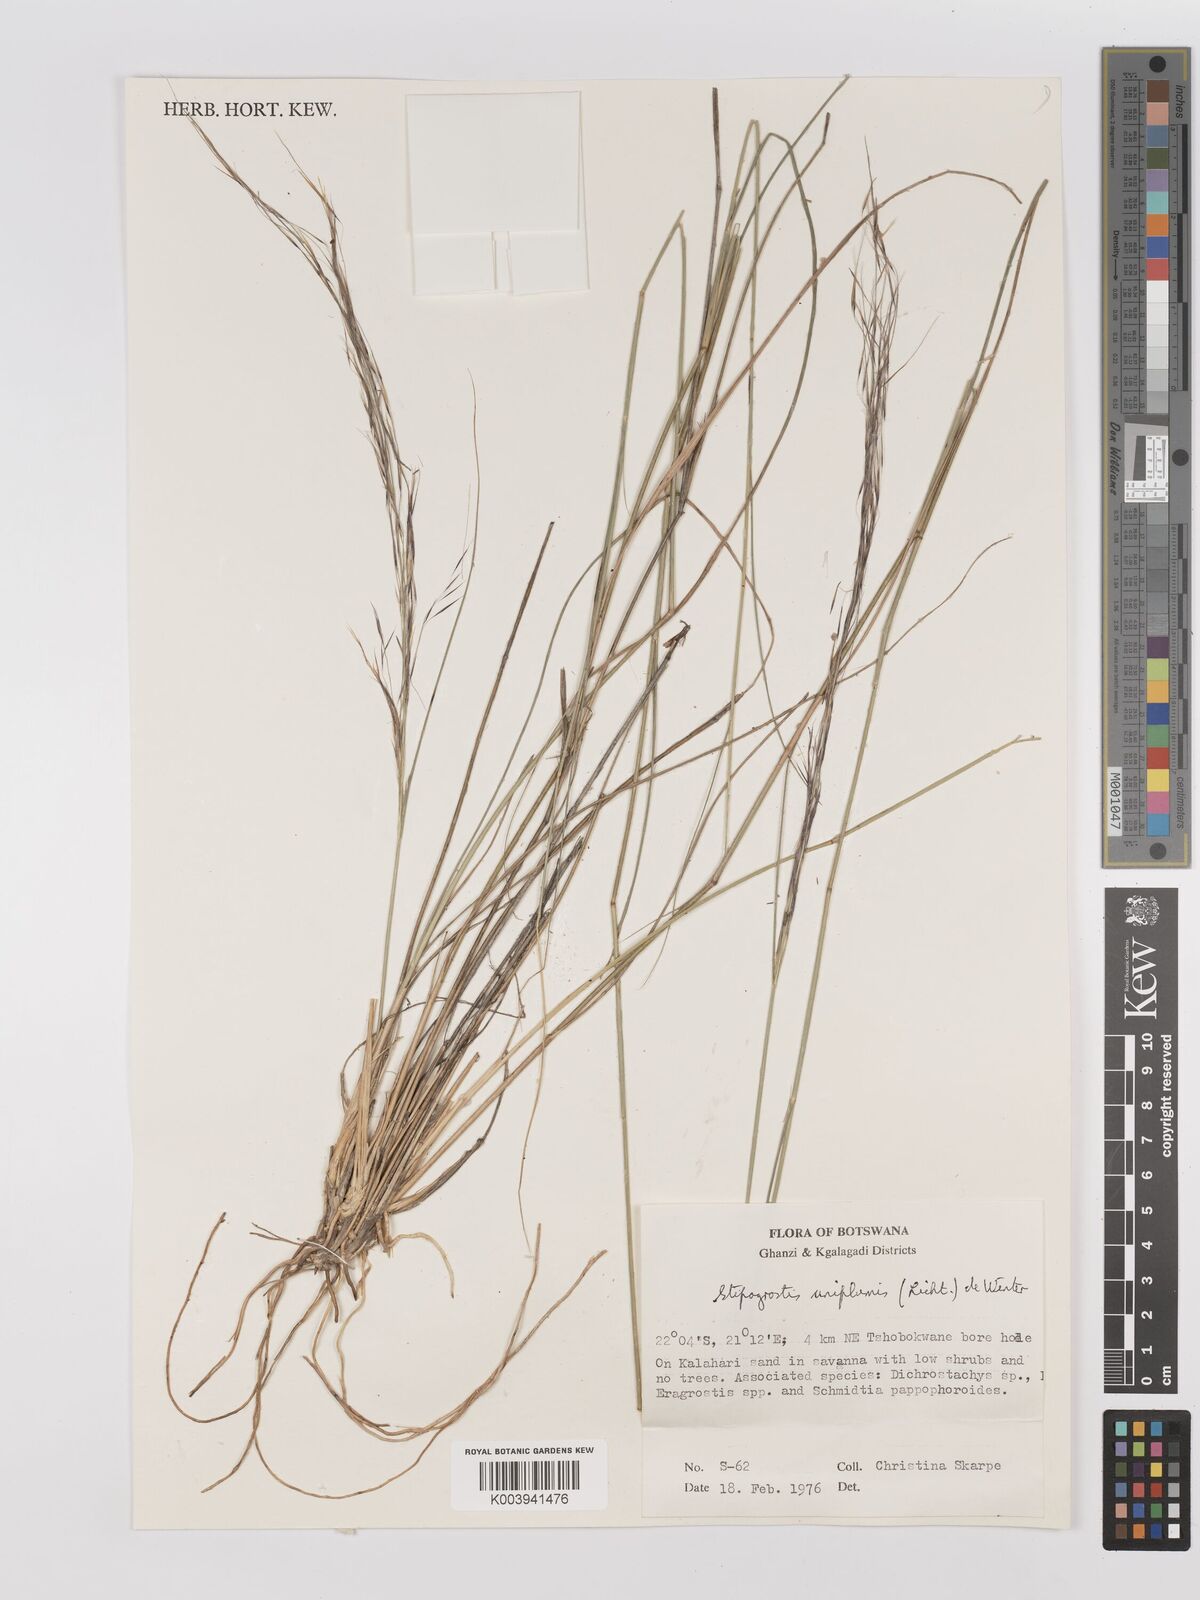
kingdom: Plantae
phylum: Tracheophyta
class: Liliopsida
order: Poales
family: Poaceae
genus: Stipagrostis
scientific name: Stipagrostis uniplumis
